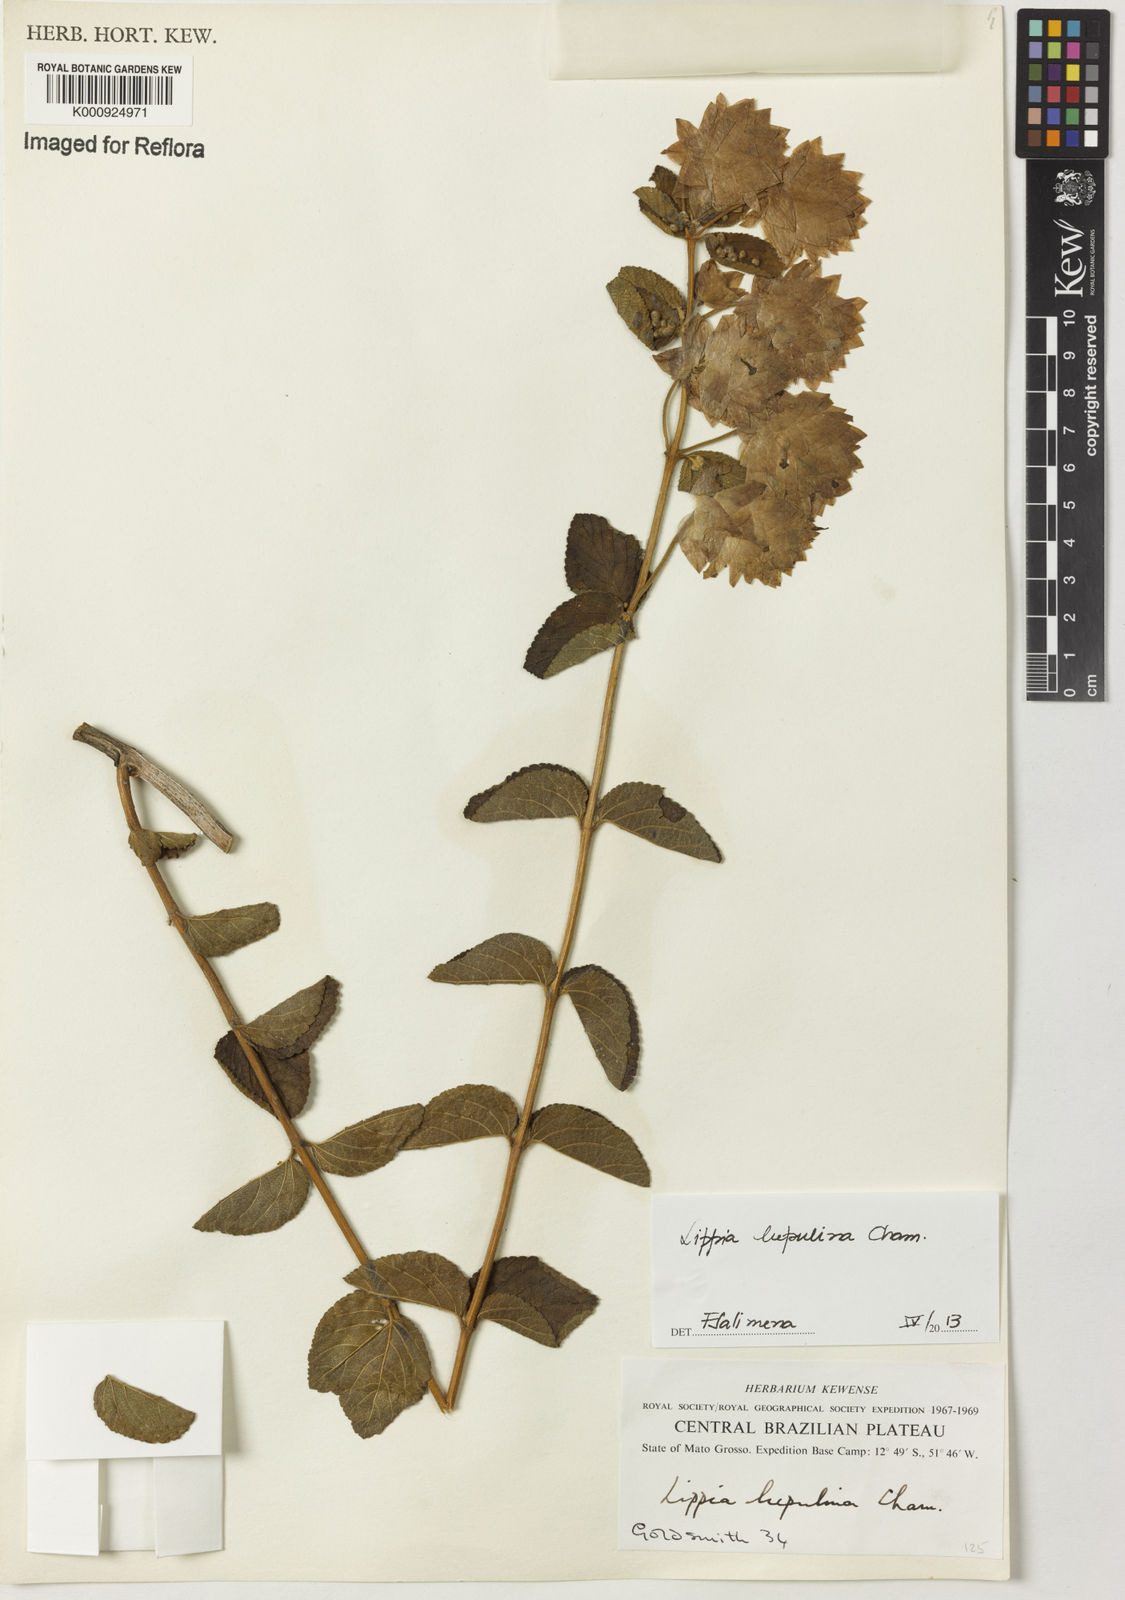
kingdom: Plantae
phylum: Tracheophyta
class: Magnoliopsida
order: Lamiales
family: Verbenaceae
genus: Lippia
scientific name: Lippia lupulina
